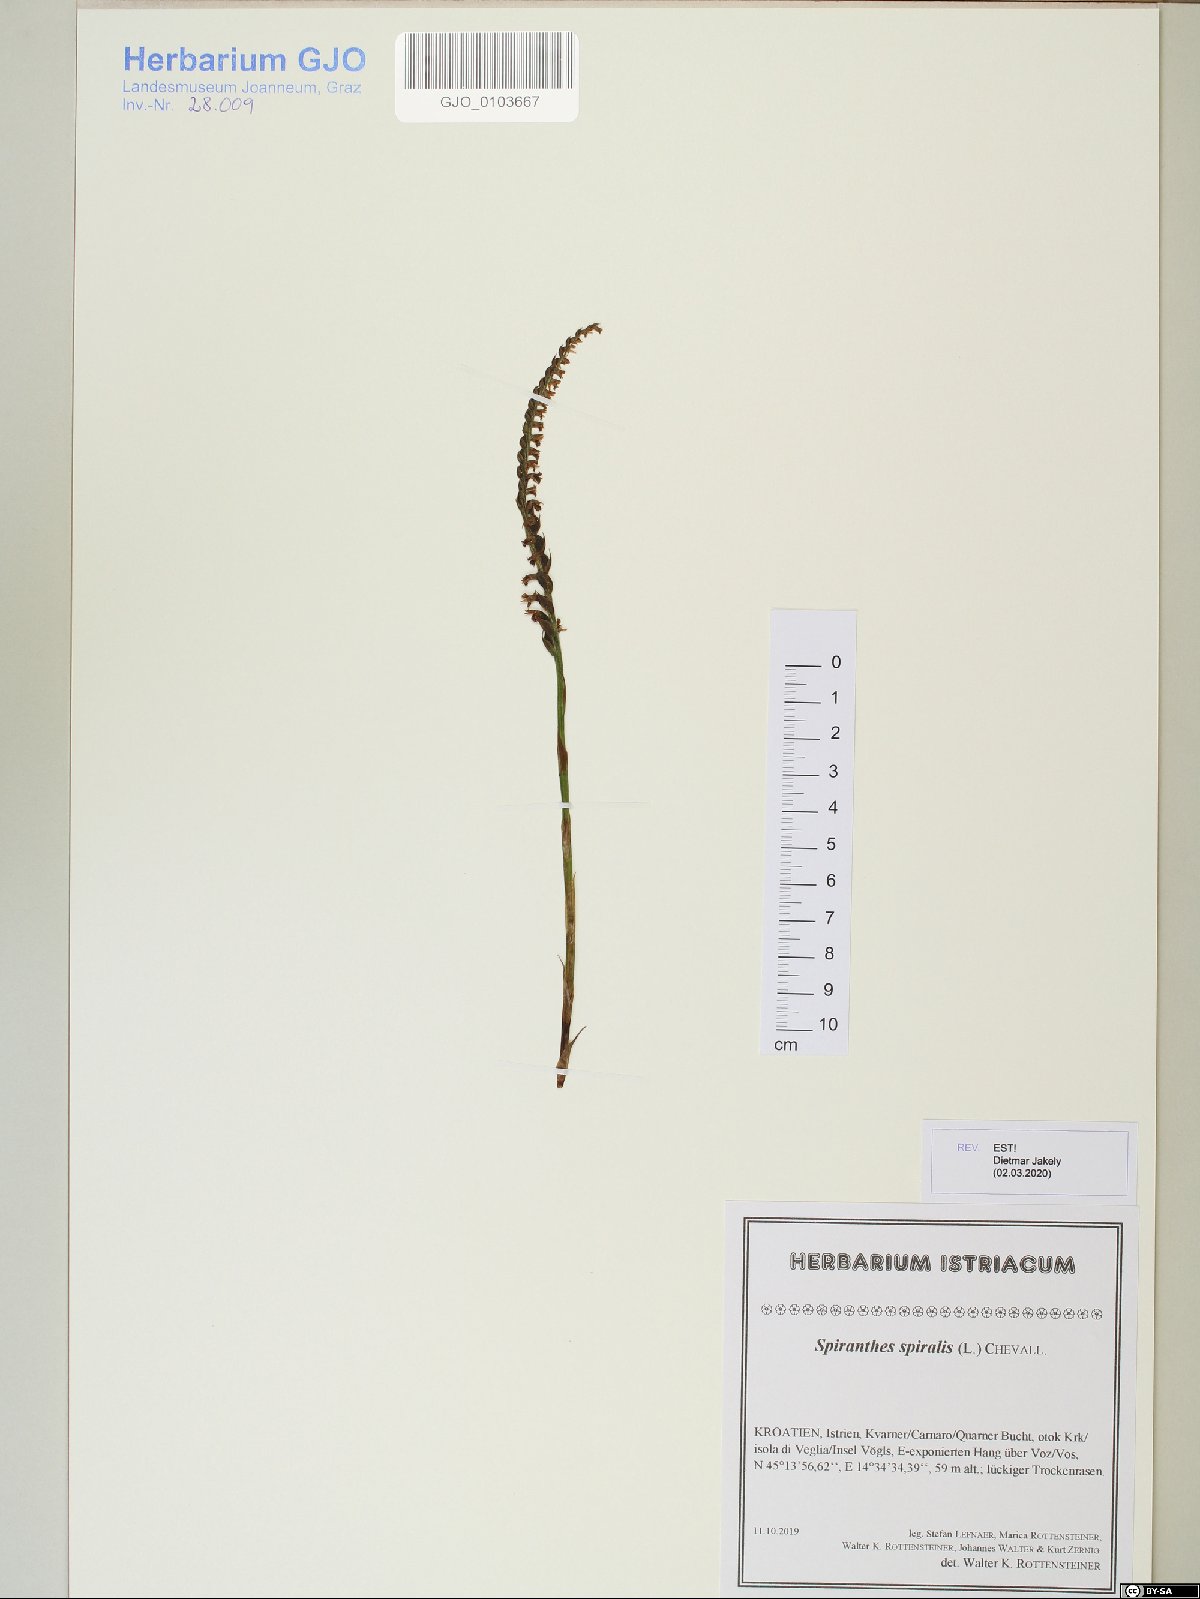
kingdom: Plantae
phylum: Tracheophyta
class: Liliopsida
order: Asparagales
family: Orchidaceae
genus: Spiranthes
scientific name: Spiranthes spiralis
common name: Autumn lady's-tresses
